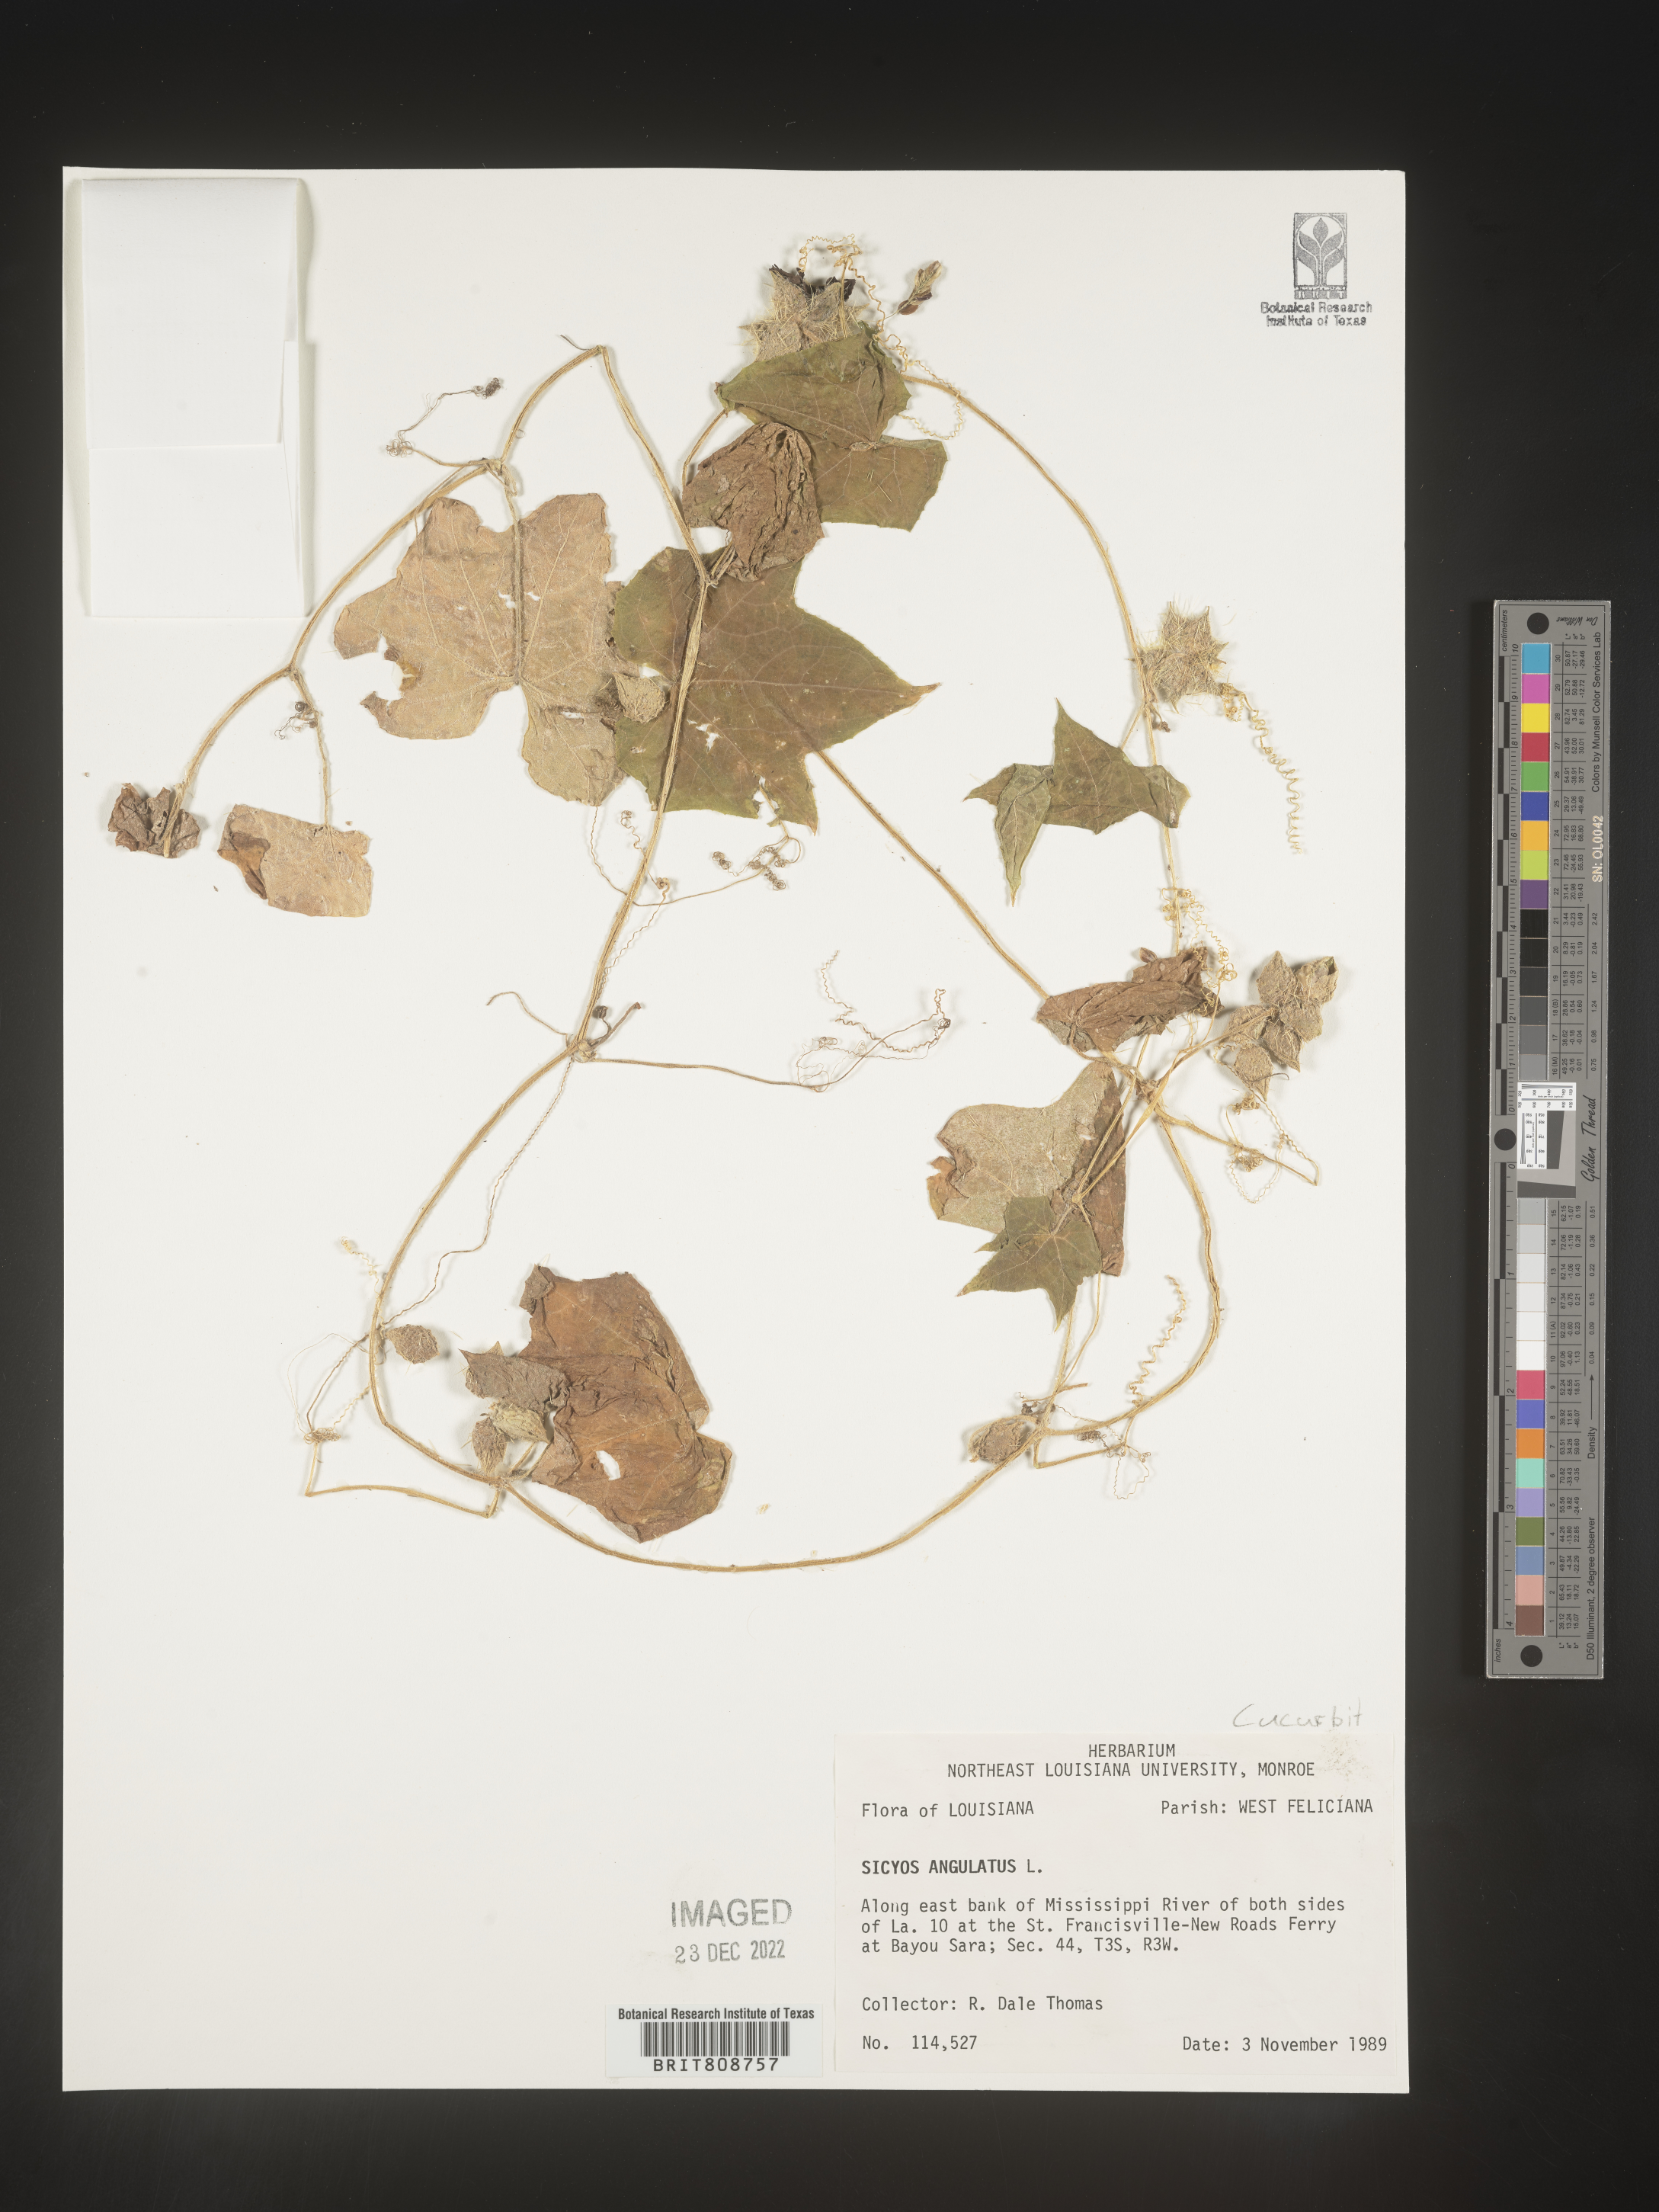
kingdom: Plantae
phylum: Tracheophyta
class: Magnoliopsida
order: Cucurbitales
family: Cucurbitaceae
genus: Sicyos
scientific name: Sicyos angulatus
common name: Angled burr cucumber
